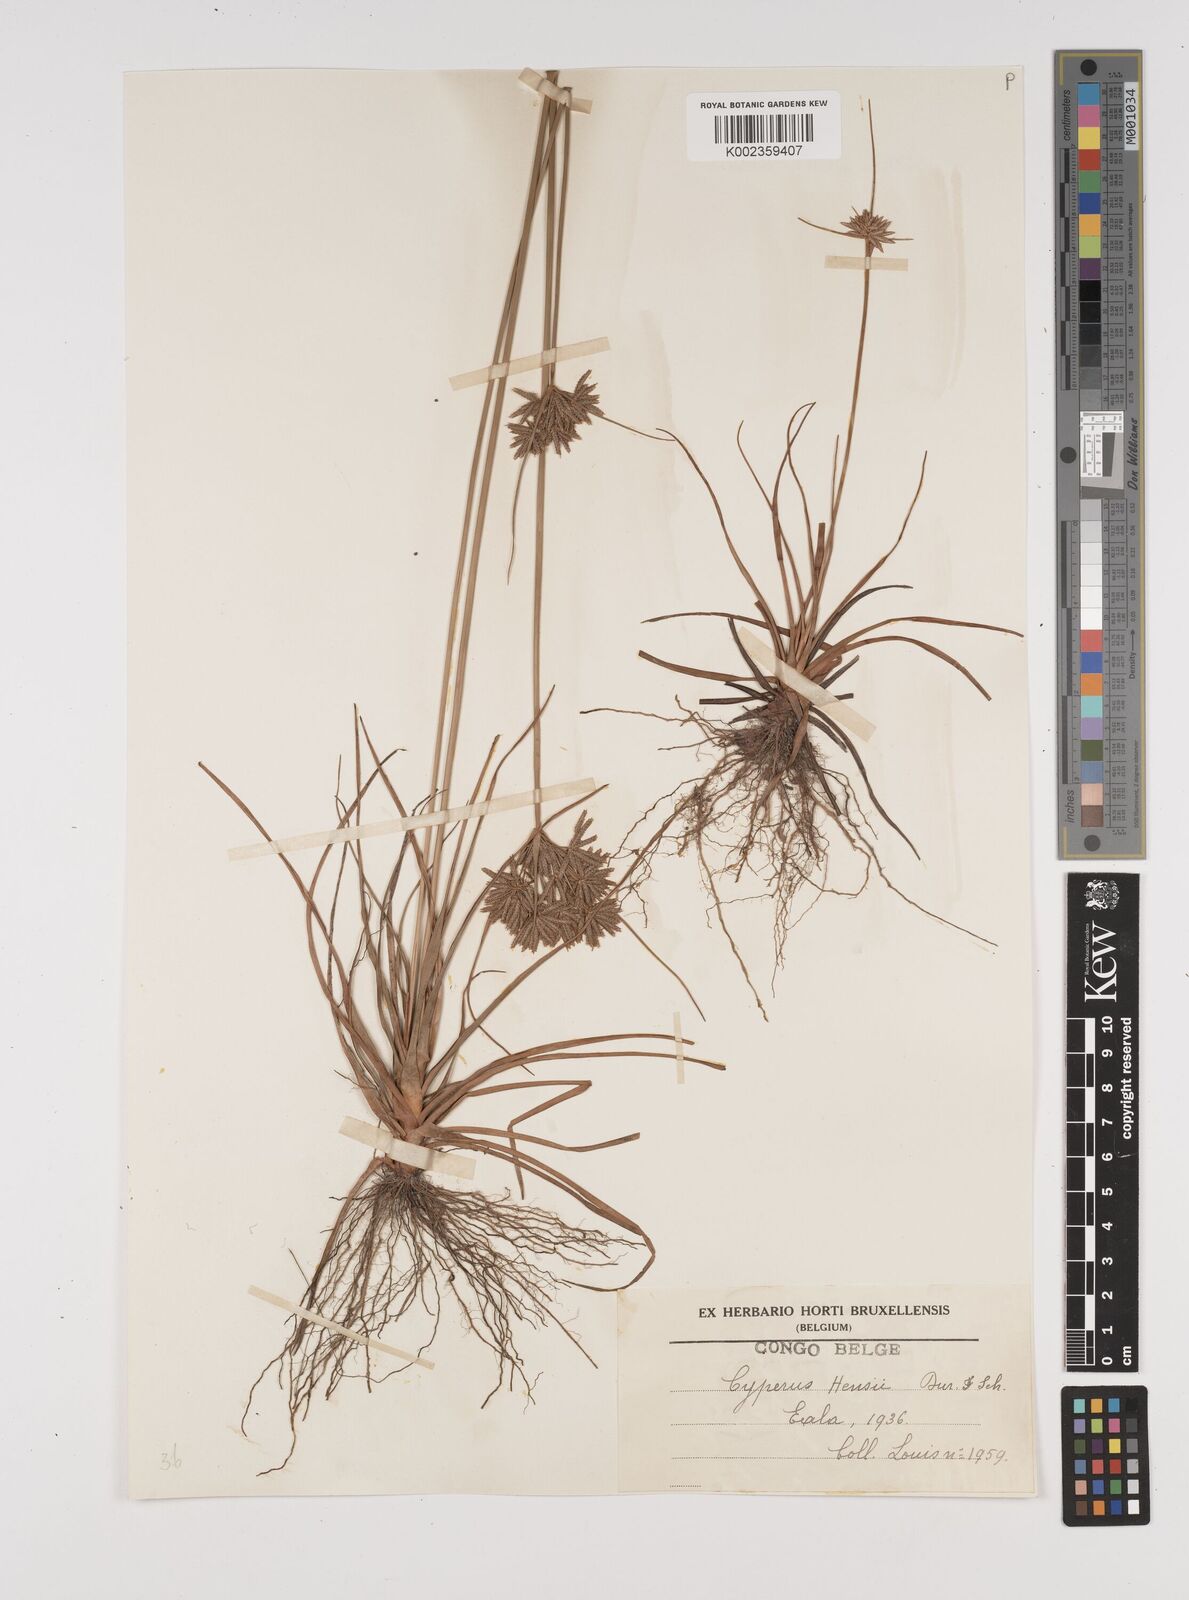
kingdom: Plantae
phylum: Tracheophyta
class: Liliopsida
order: Poales
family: Cyperaceae
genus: Cyperus
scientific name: Cyperus hensii
